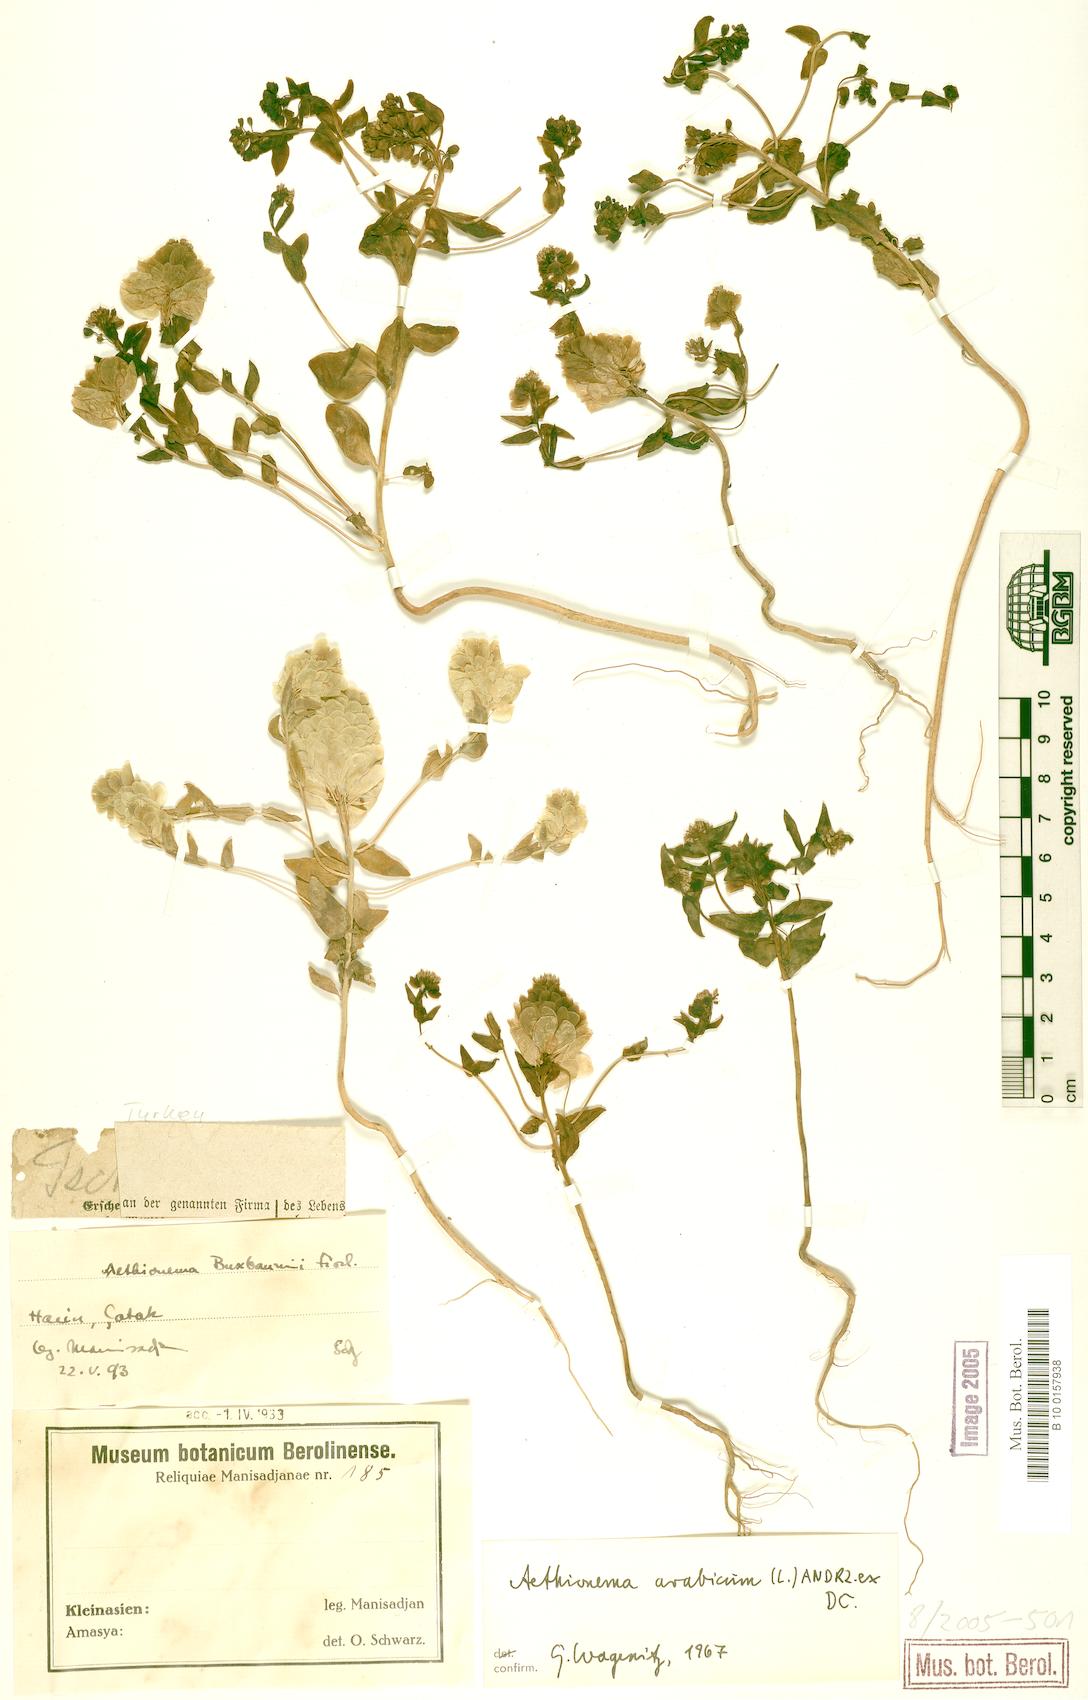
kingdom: Plantae
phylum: Tracheophyta
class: Magnoliopsida
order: Brassicales
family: Brassicaceae
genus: Aethionema
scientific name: Aethionema arabicum
